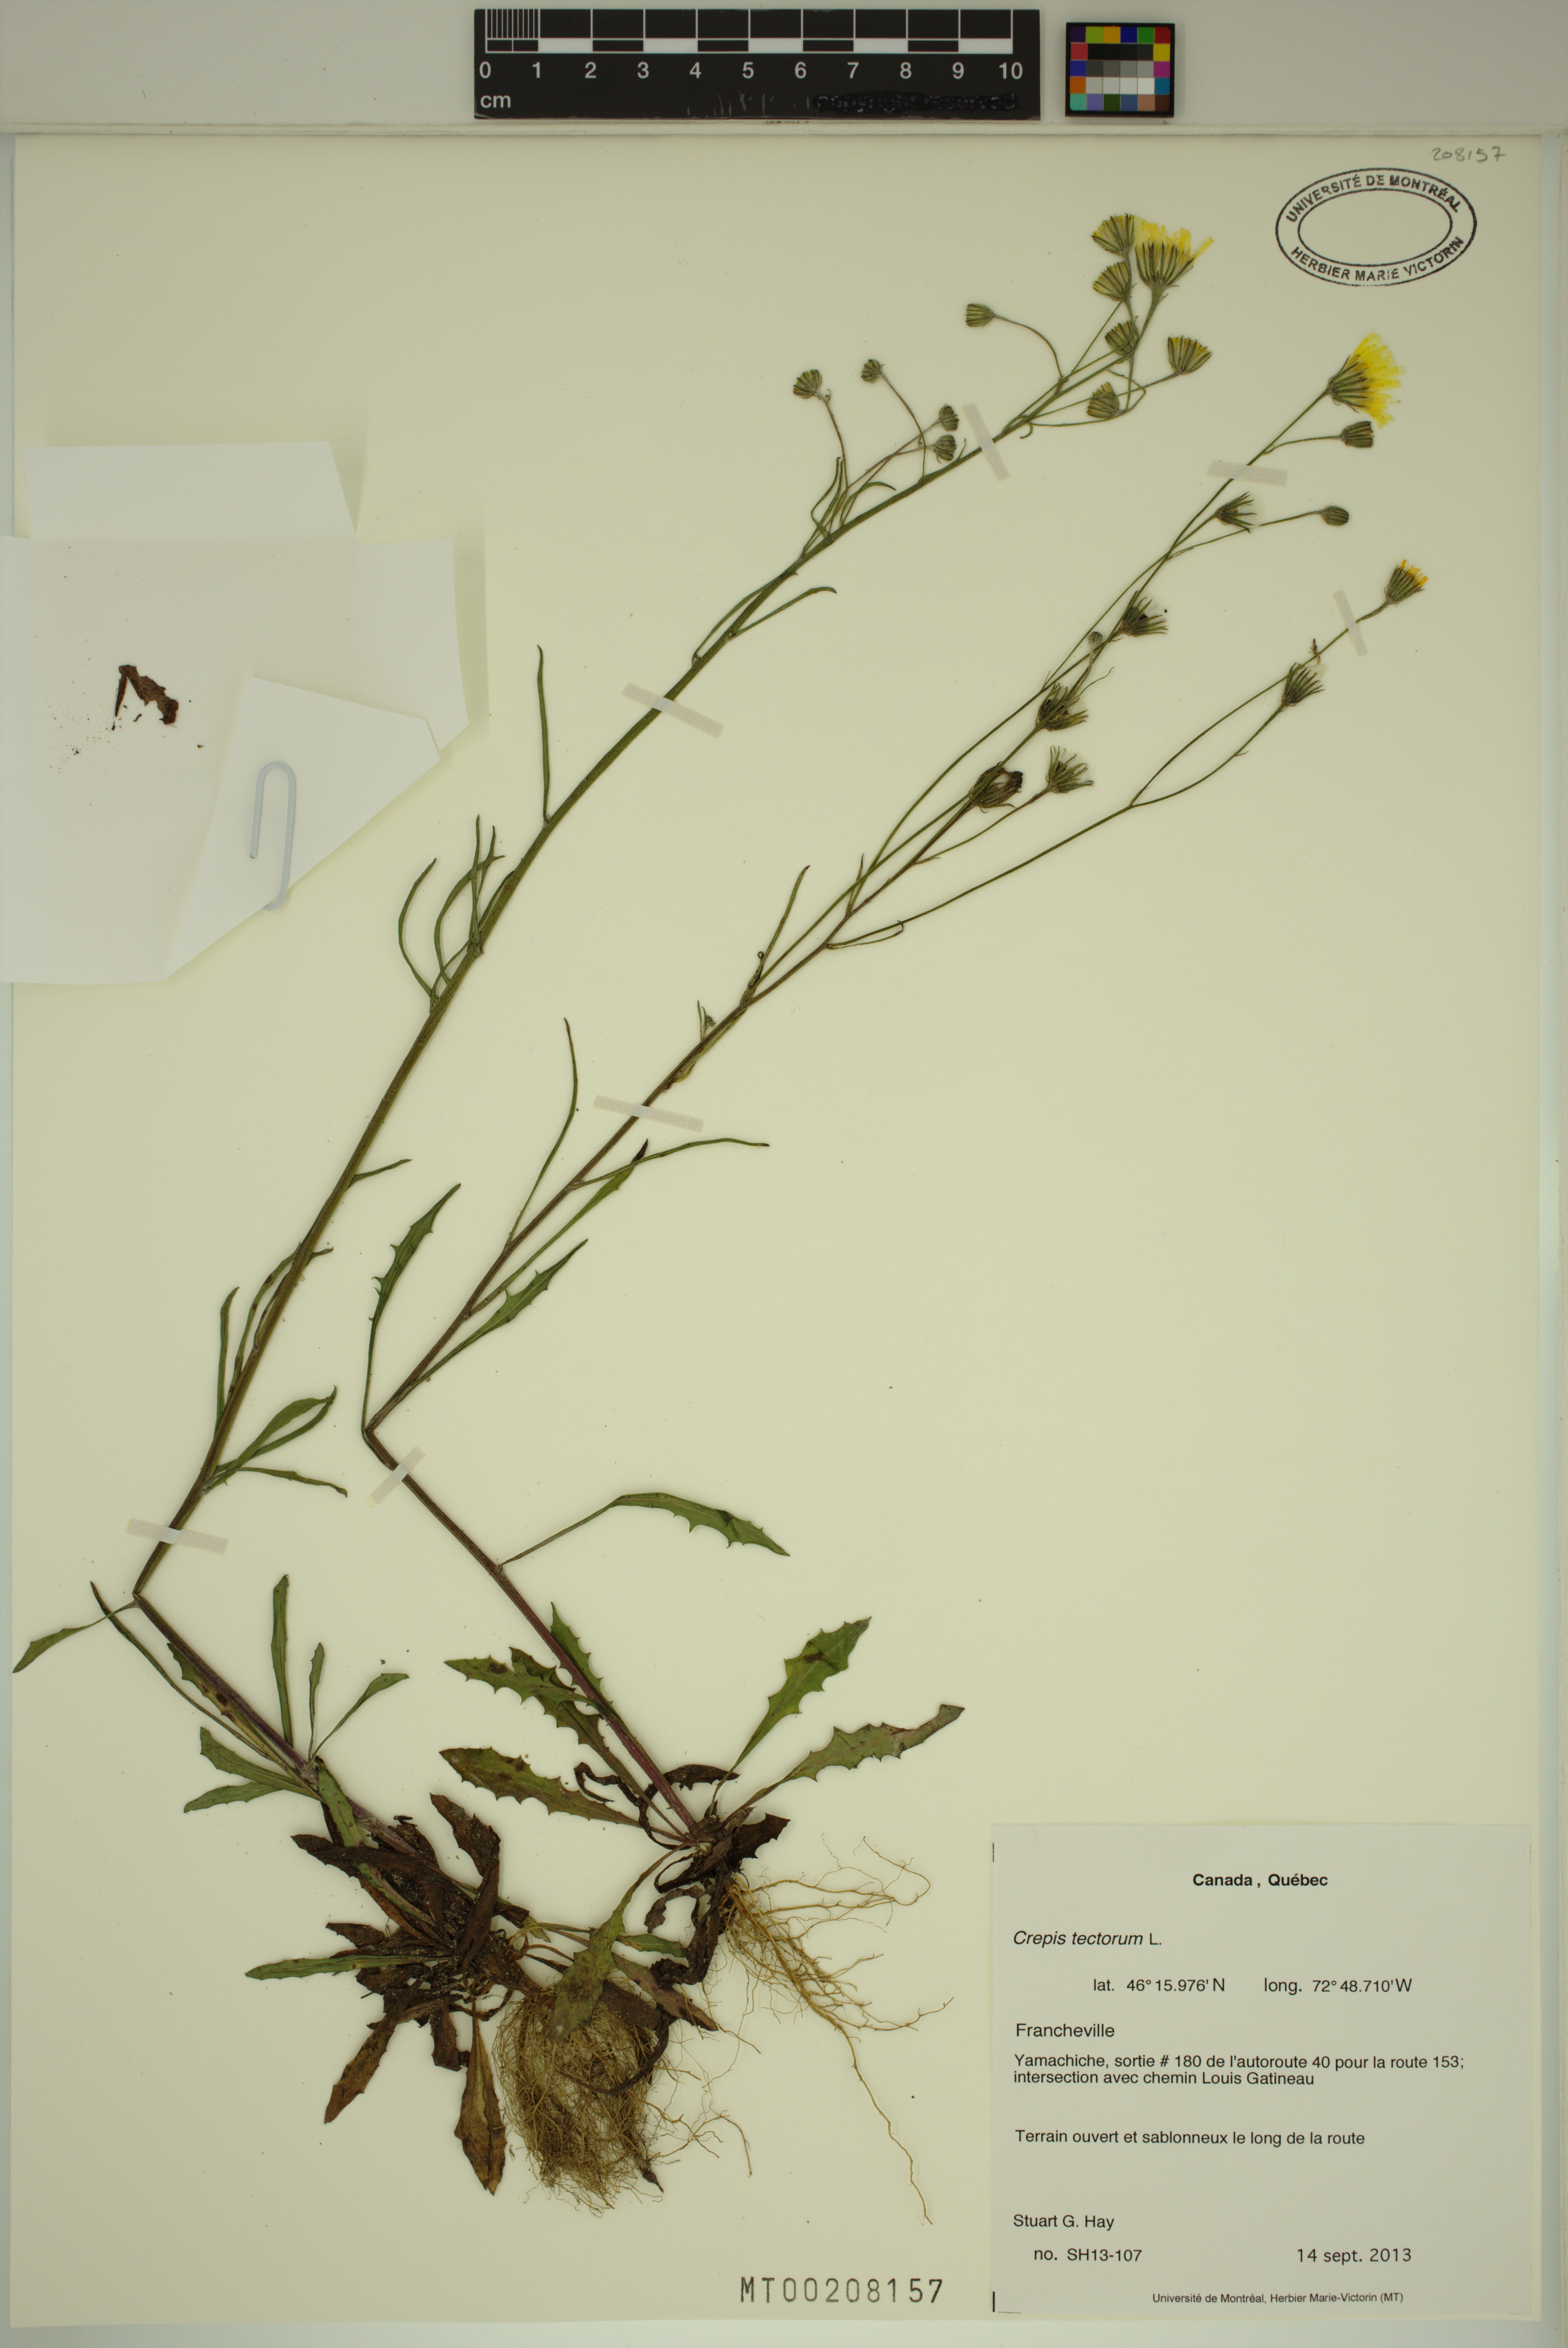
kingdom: Plantae
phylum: Tracheophyta
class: Magnoliopsida
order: Asterales
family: Asteraceae
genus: Crepis
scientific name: Crepis tectorum
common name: Narrow-leaved hawk's-beard
